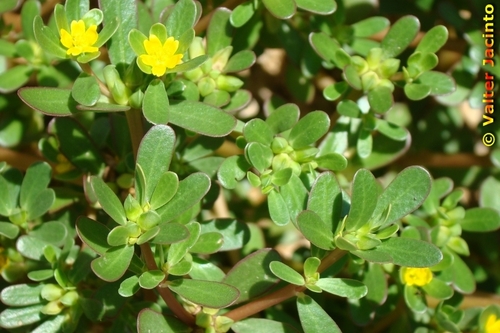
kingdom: Plantae
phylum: Tracheophyta
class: Magnoliopsida
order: Caryophyllales
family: Portulacaceae
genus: Portulaca
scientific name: Portulaca oleracea
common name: Common purslane
